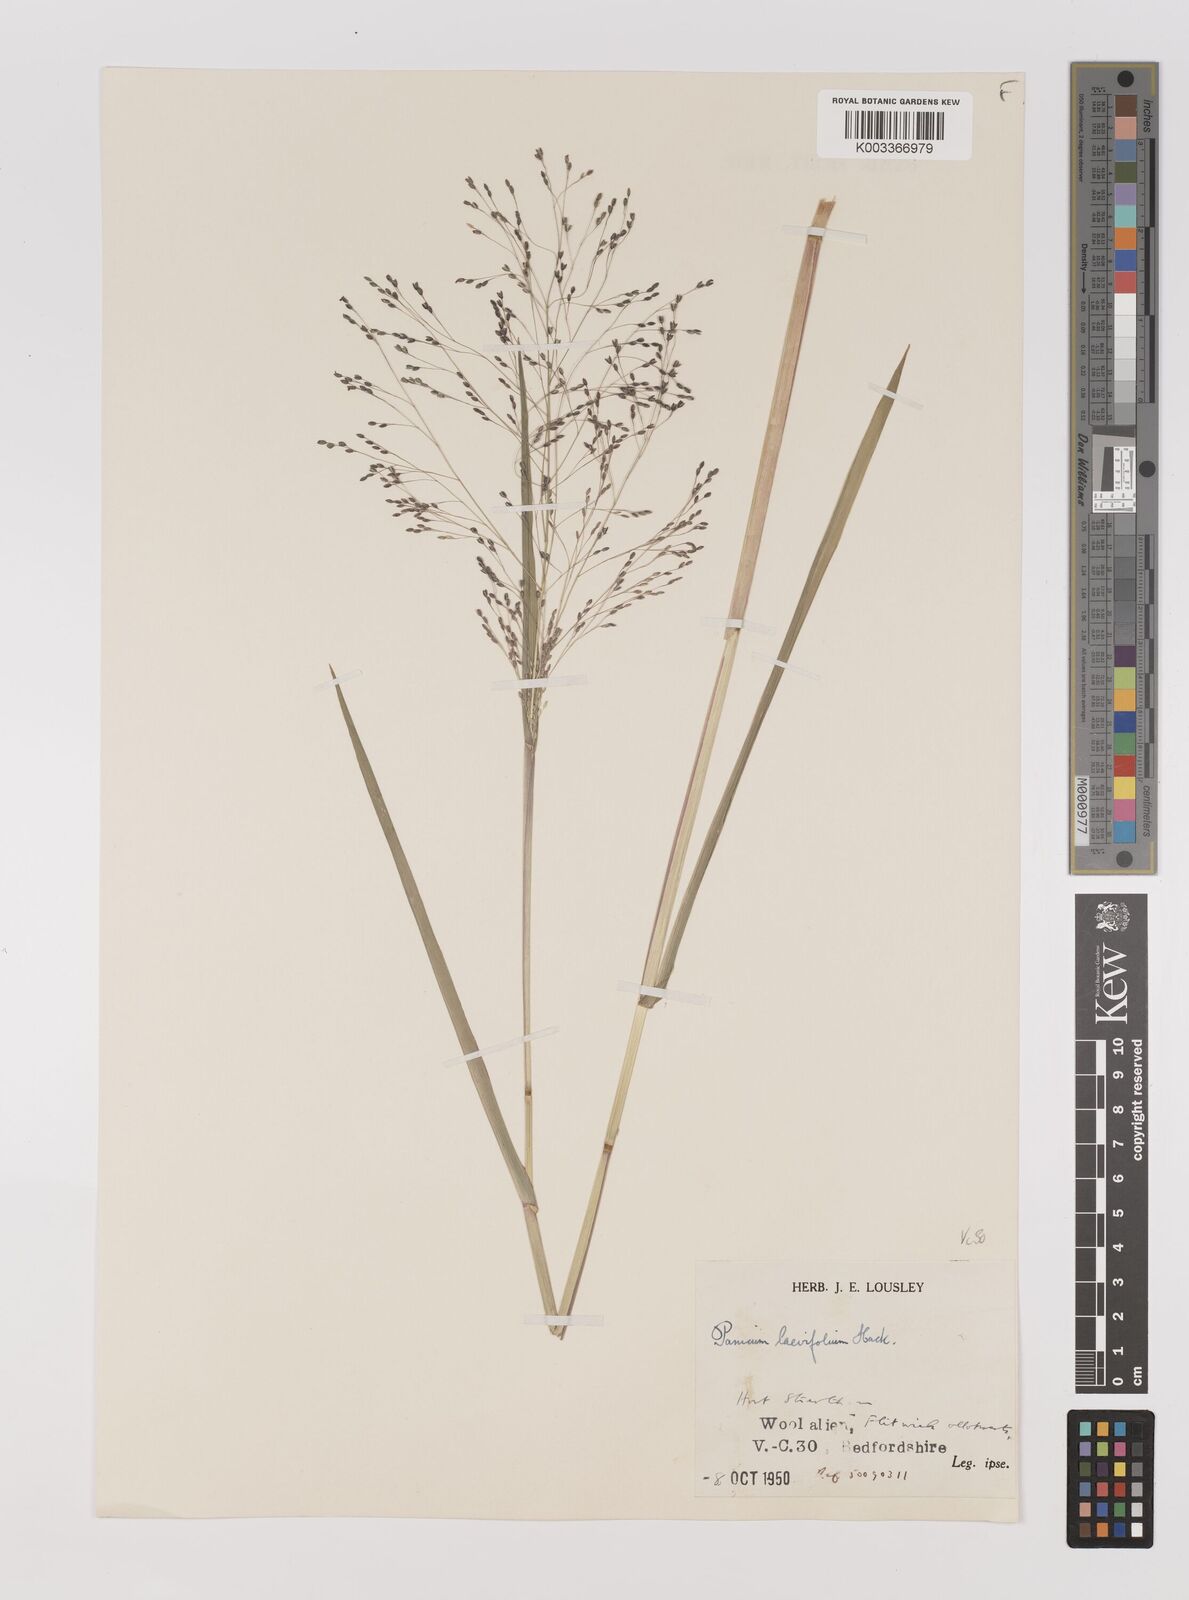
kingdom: Plantae
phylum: Tracheophyta
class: Liliopsida
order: Poales
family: Poaceae
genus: Panicum
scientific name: Panicum schinzii
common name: Sweet grass
